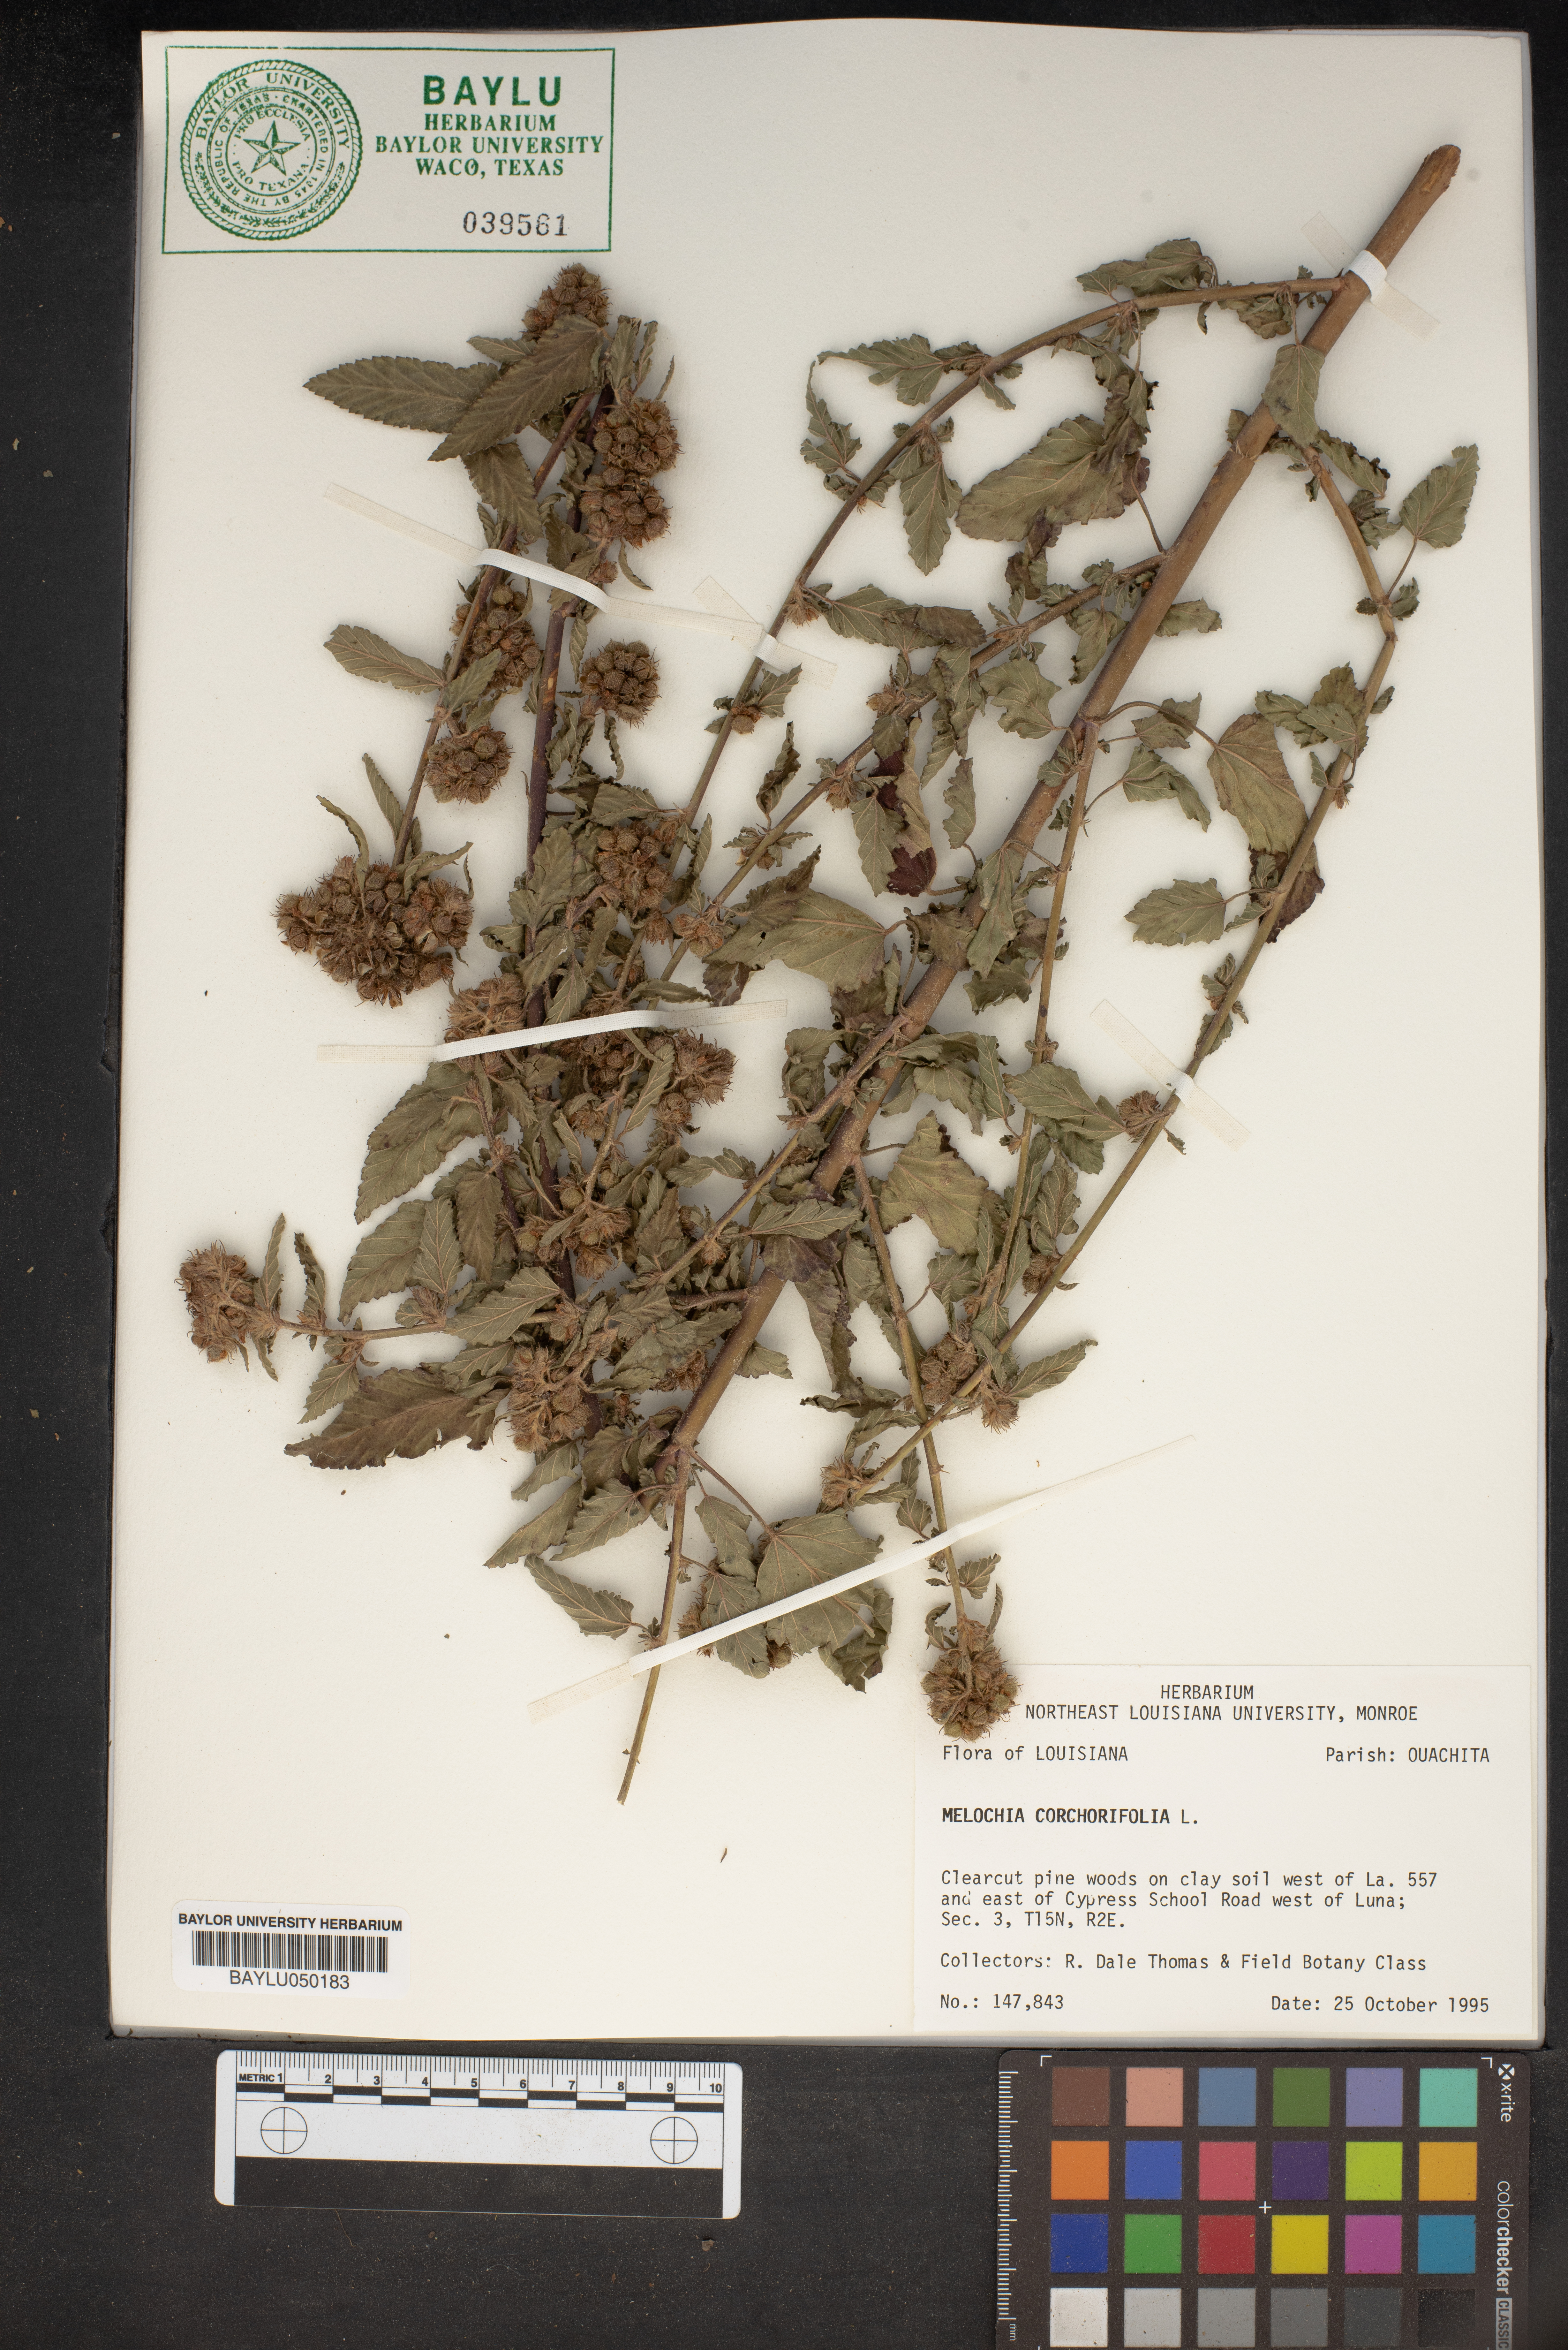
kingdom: Plantae
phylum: Tracheophyta
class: Magnoliopsida
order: Malvales
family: Malvaceae
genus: Melochia
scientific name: Melochia corchorifolia
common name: Chocolateweed
